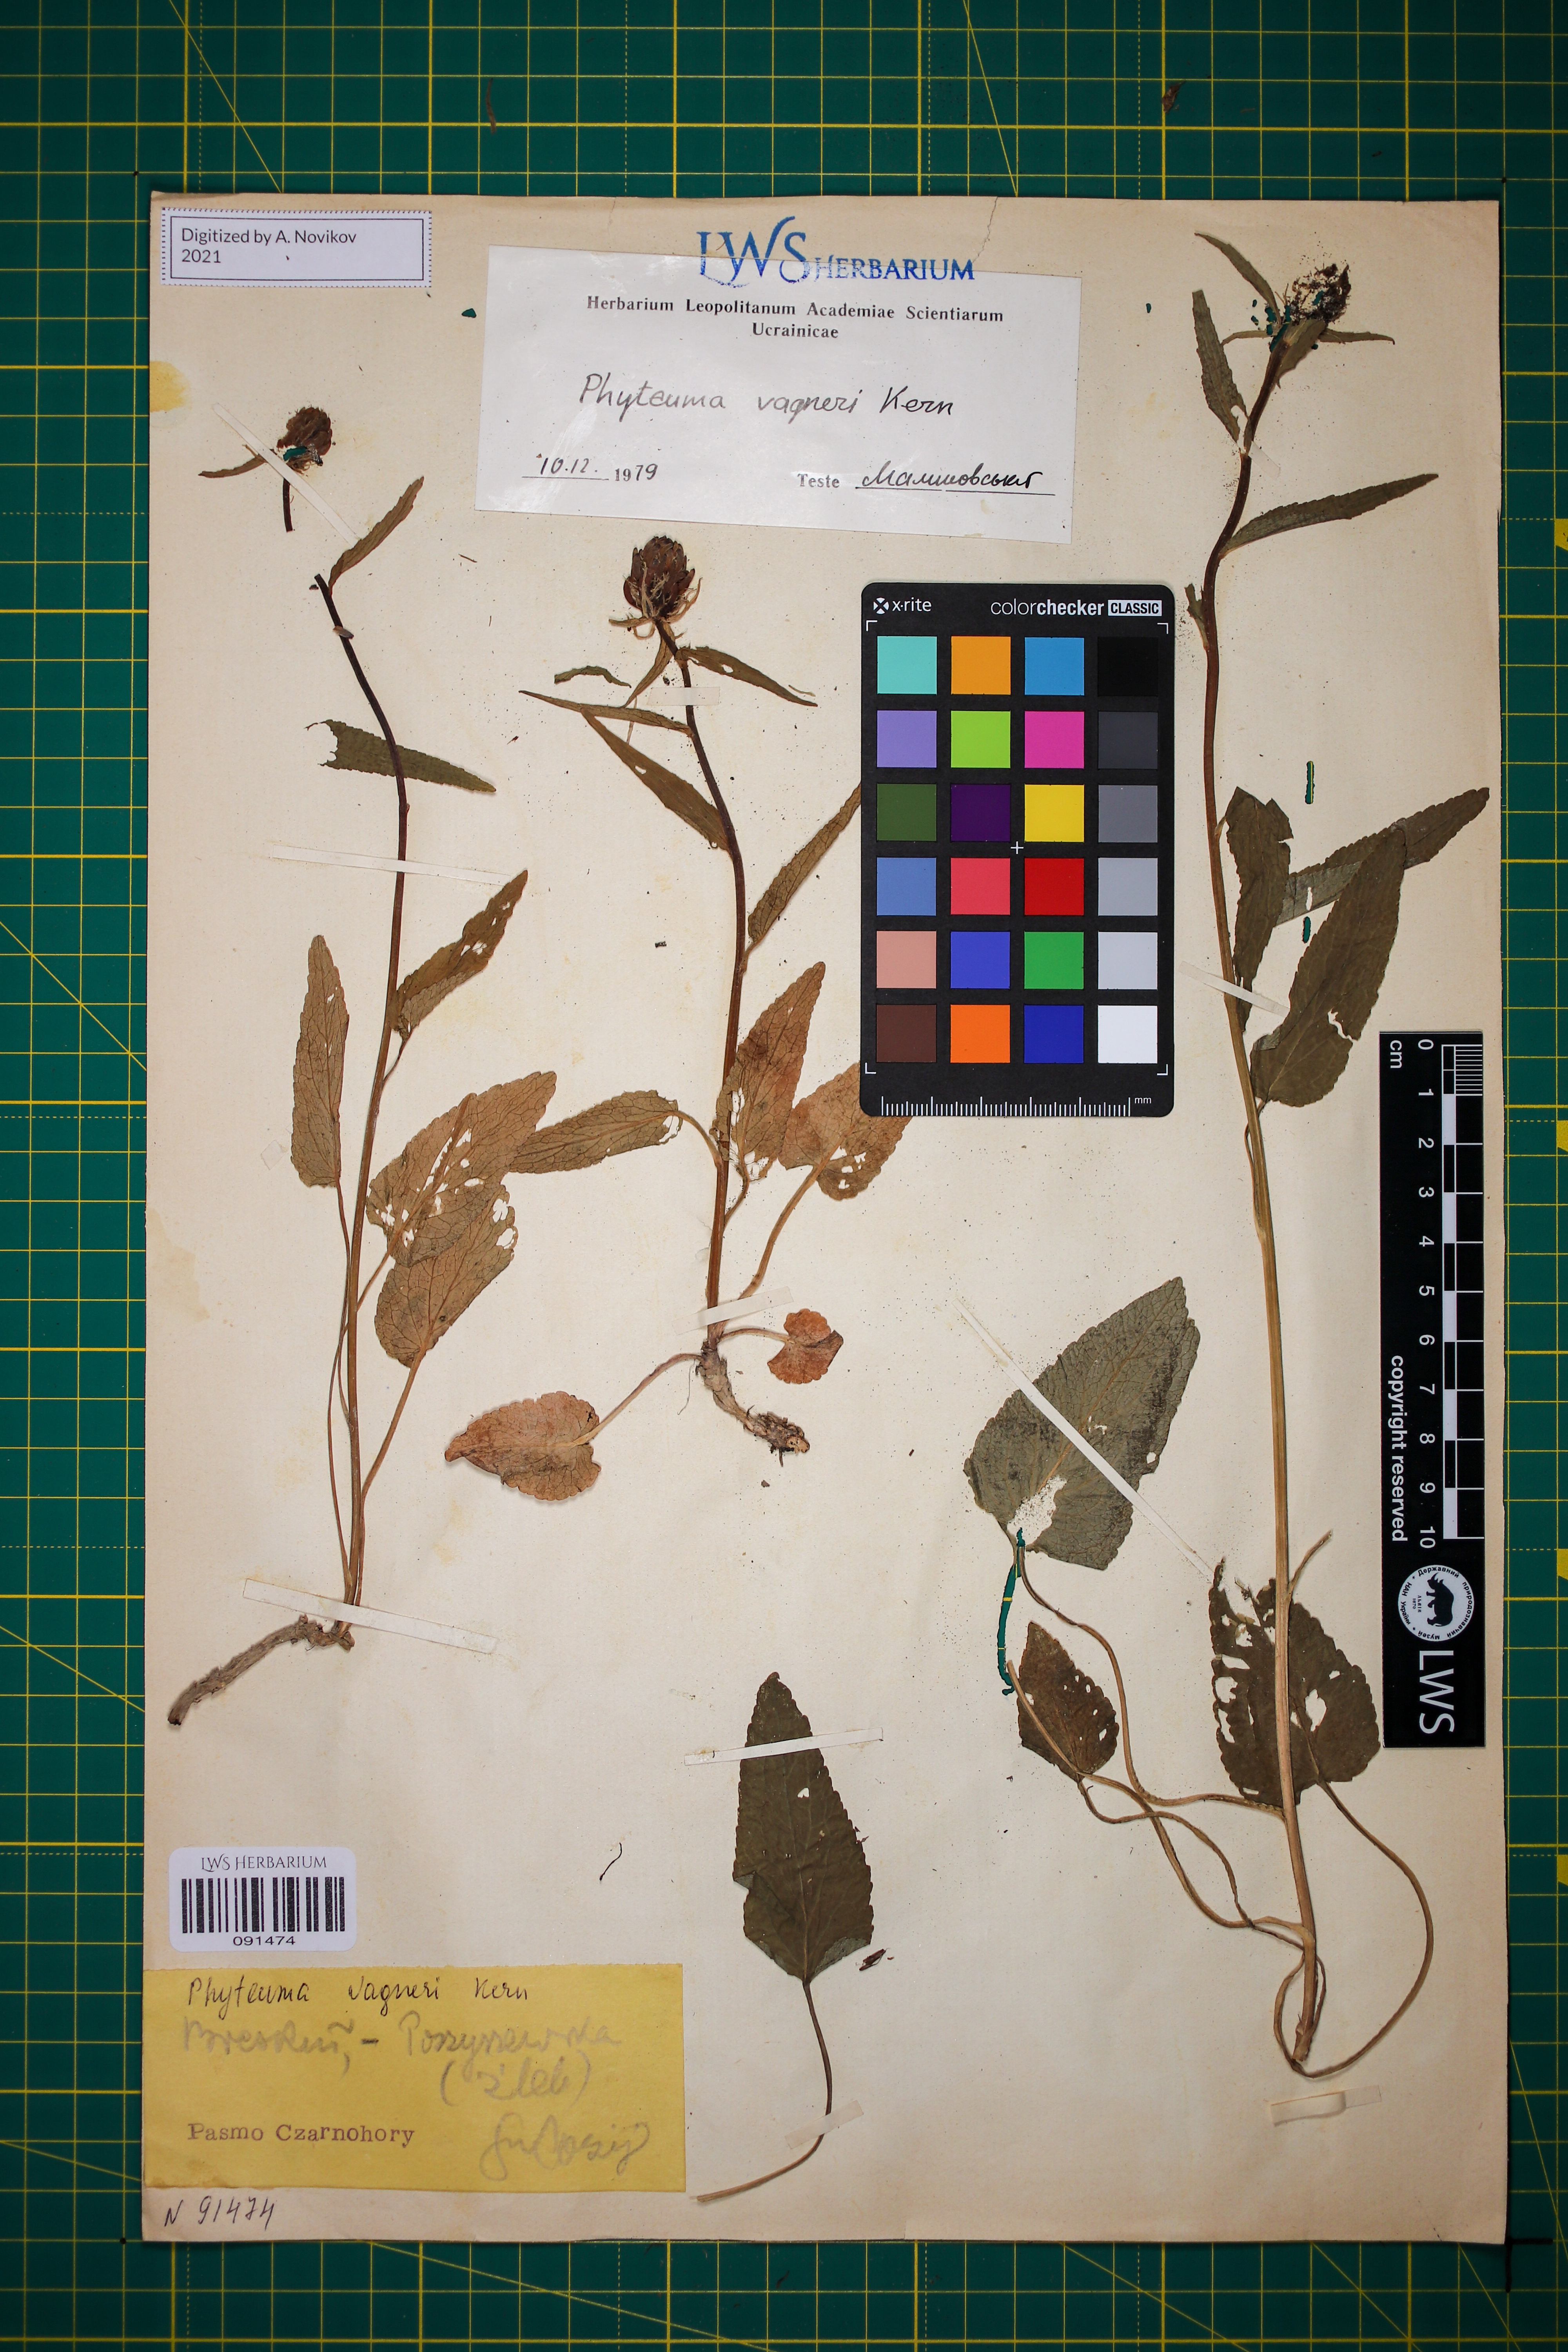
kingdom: Plantae
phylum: Tracheophyta
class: Magnoliopsida
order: Asterales
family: Campanulaceae
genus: Phyteuma
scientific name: Phyteuma vagneri
